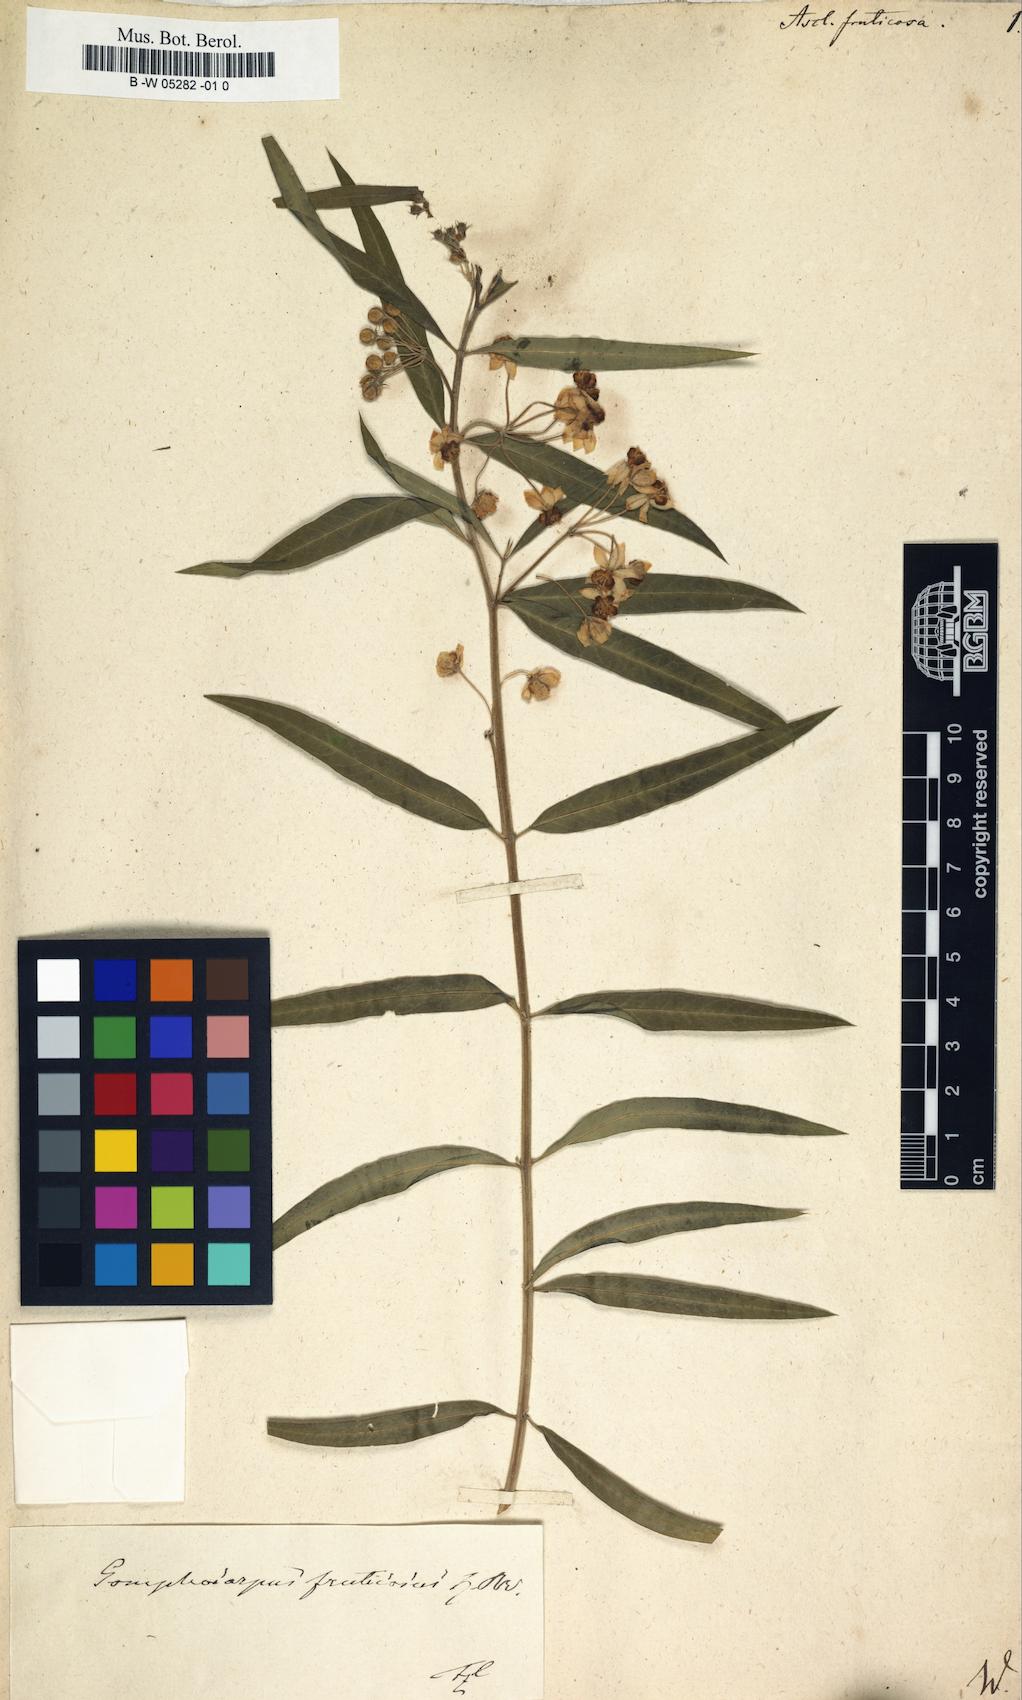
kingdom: Plantae
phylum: Tracheophyta
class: Magnoliopsida
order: Gentianales
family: Apocynaceae
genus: Gomphocarpus
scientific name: Gomphocarpus fruticosus
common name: Milkweed
